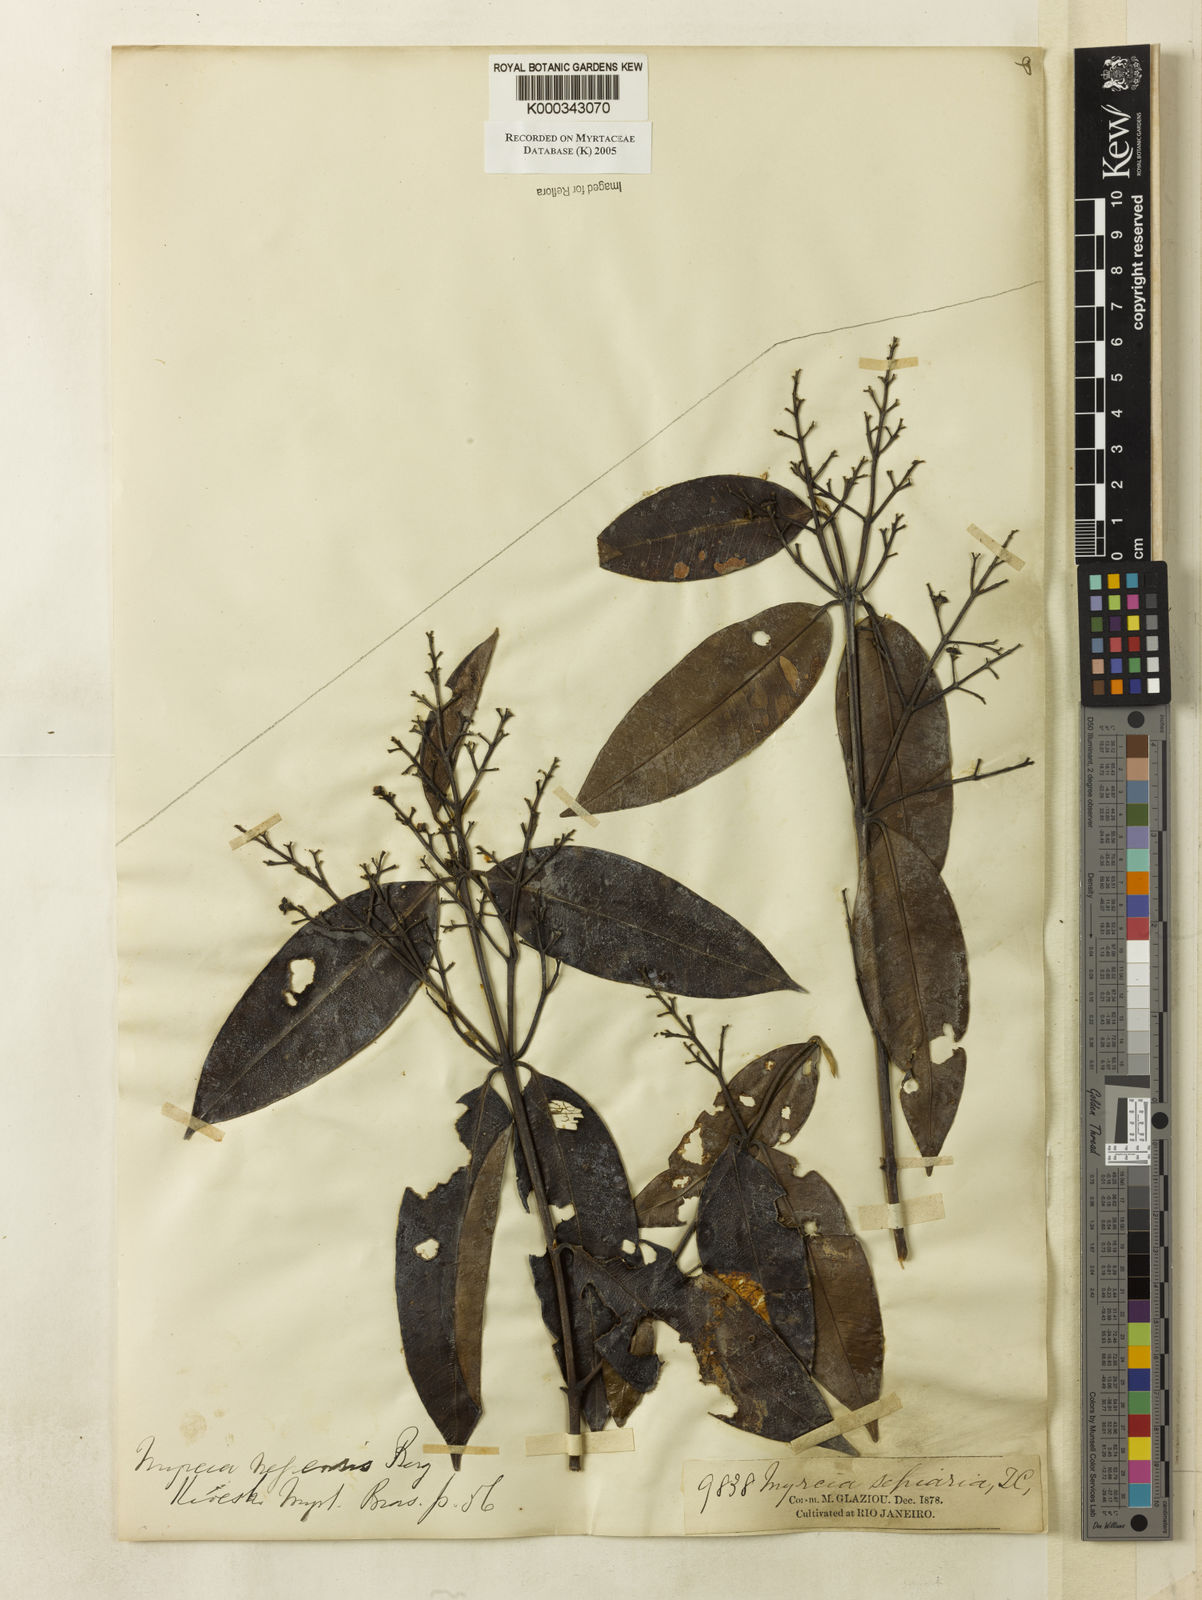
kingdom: Plantae
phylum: Tracheophyta
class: Magnoliopsida
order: Myrtales
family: Myrtaceae
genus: Myrcia
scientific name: Myrcia splendens
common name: Surinam cherry
